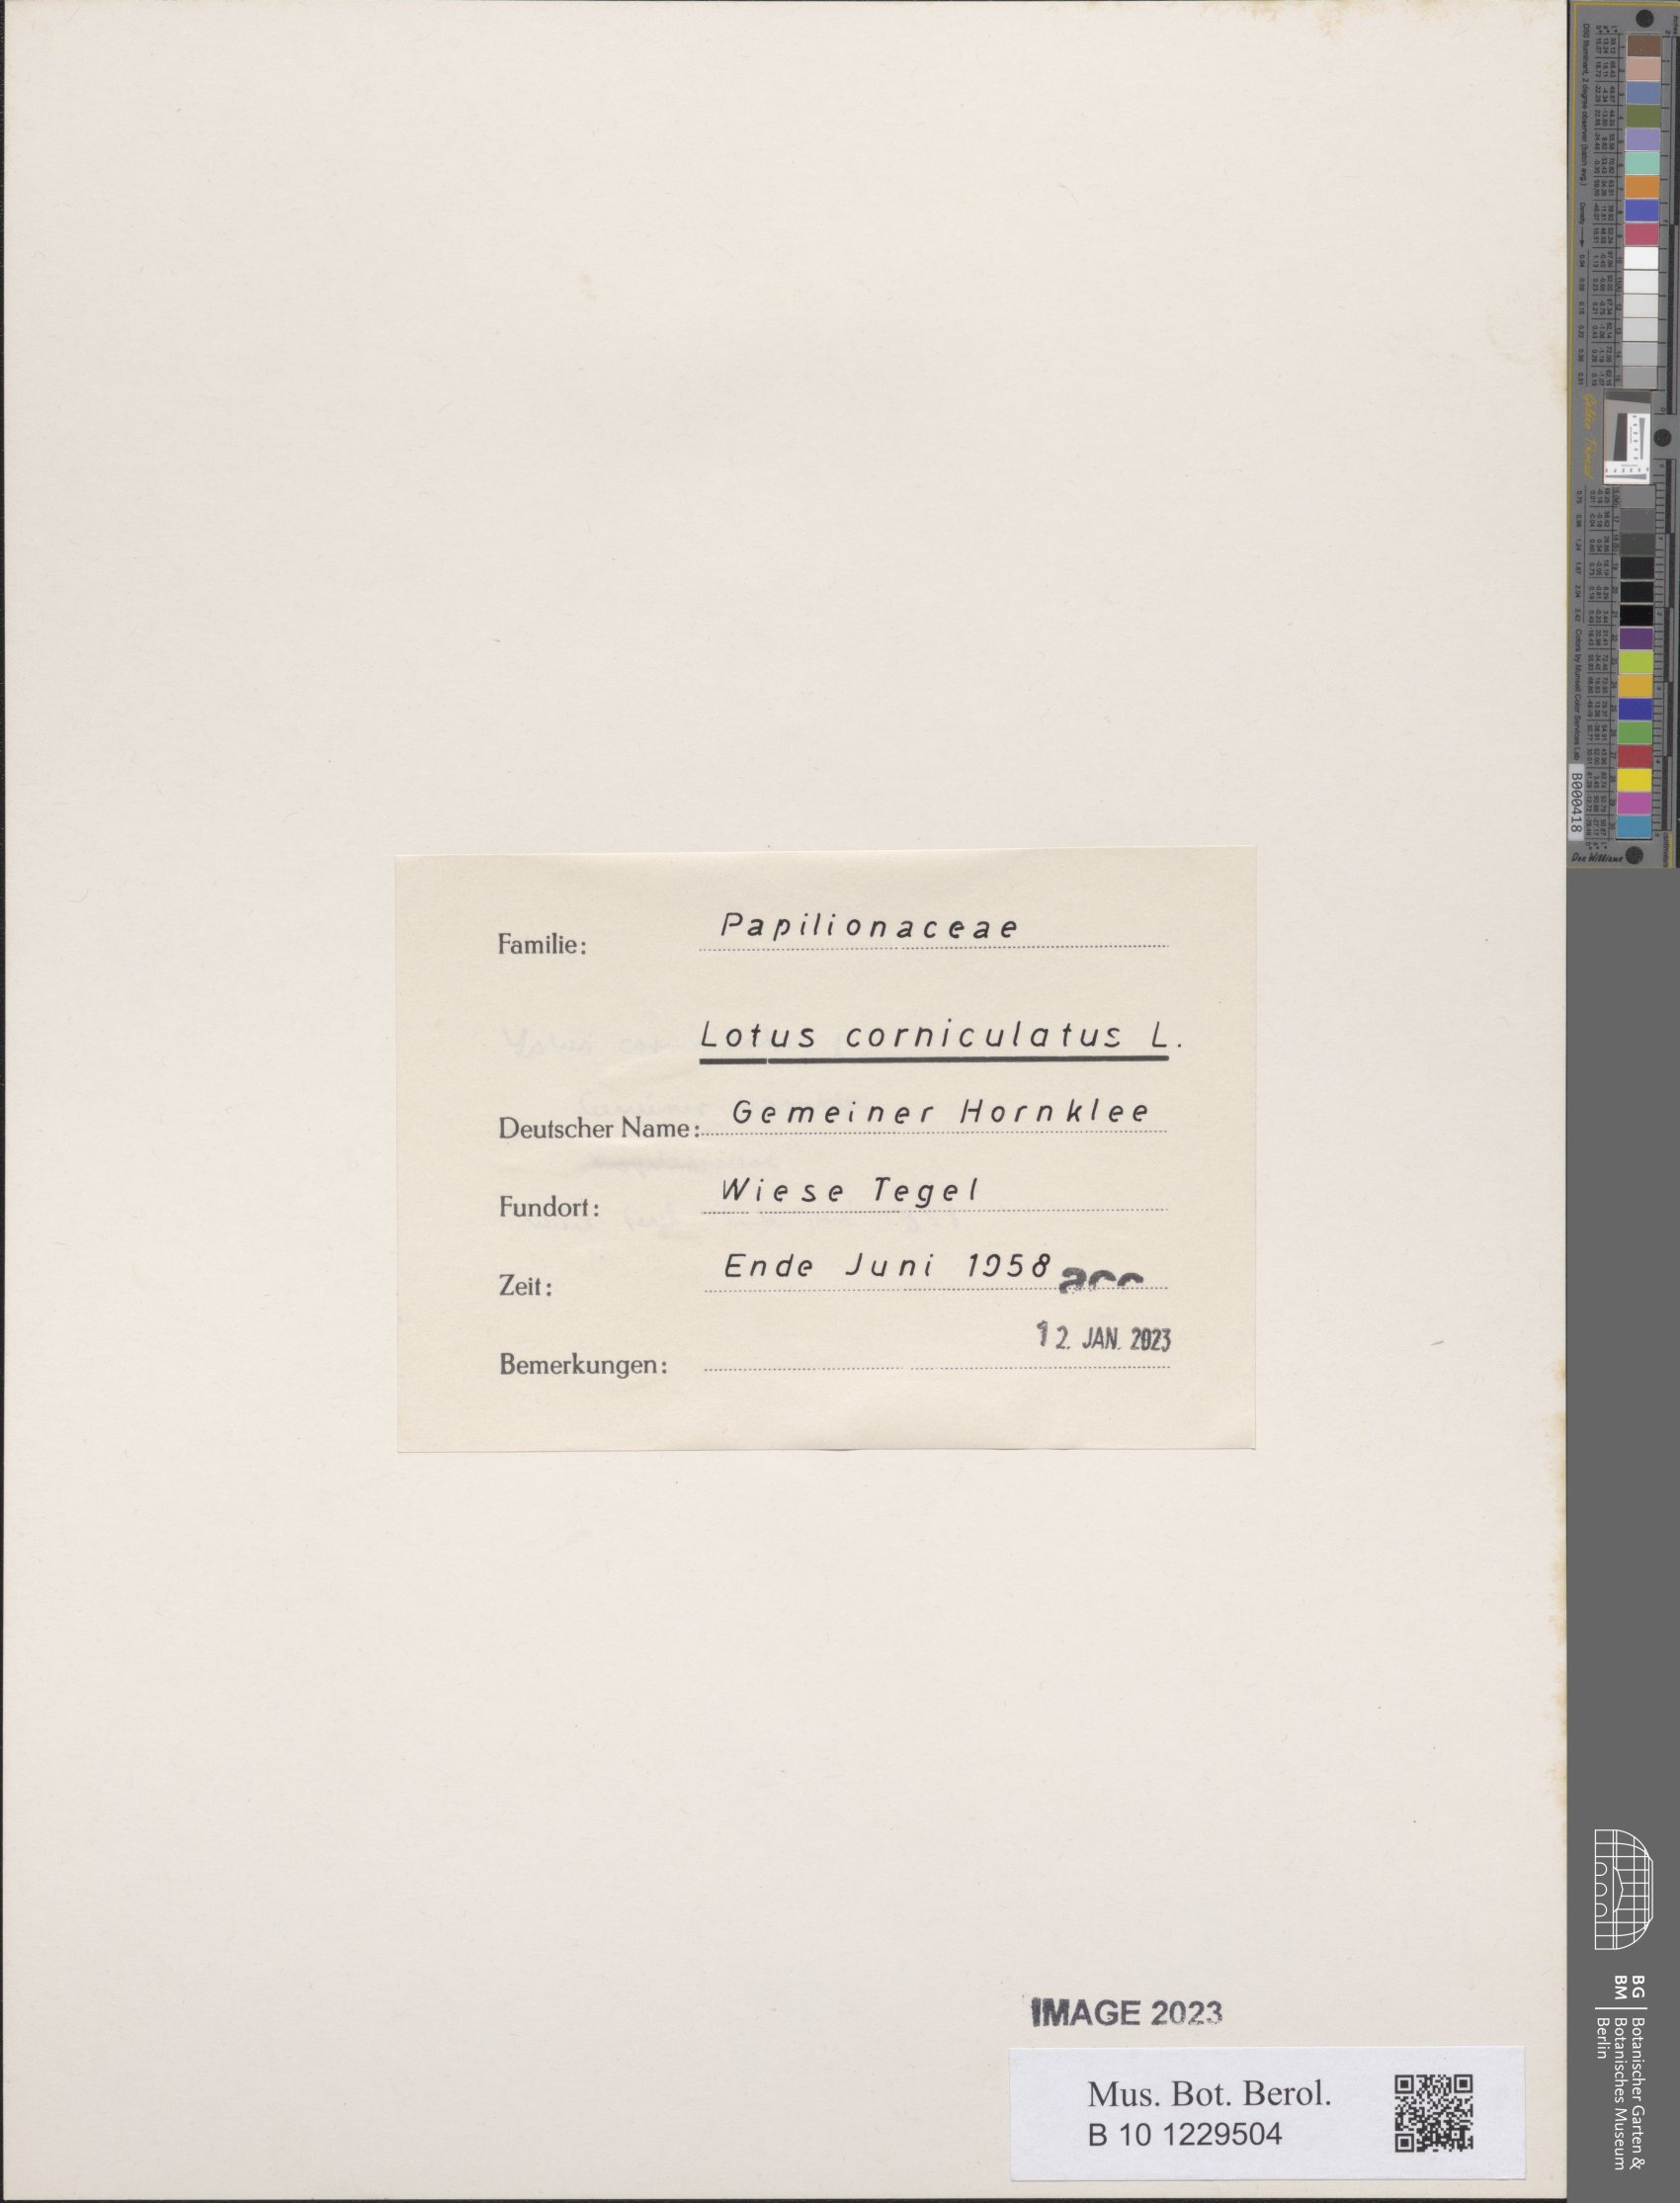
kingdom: Plantae
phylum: Tracheophyta
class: Magnoliopsida
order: Fabales
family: Fabaceae
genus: Lotus
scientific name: Lotus corniculatus
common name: Common bird's-foot-trefoil
